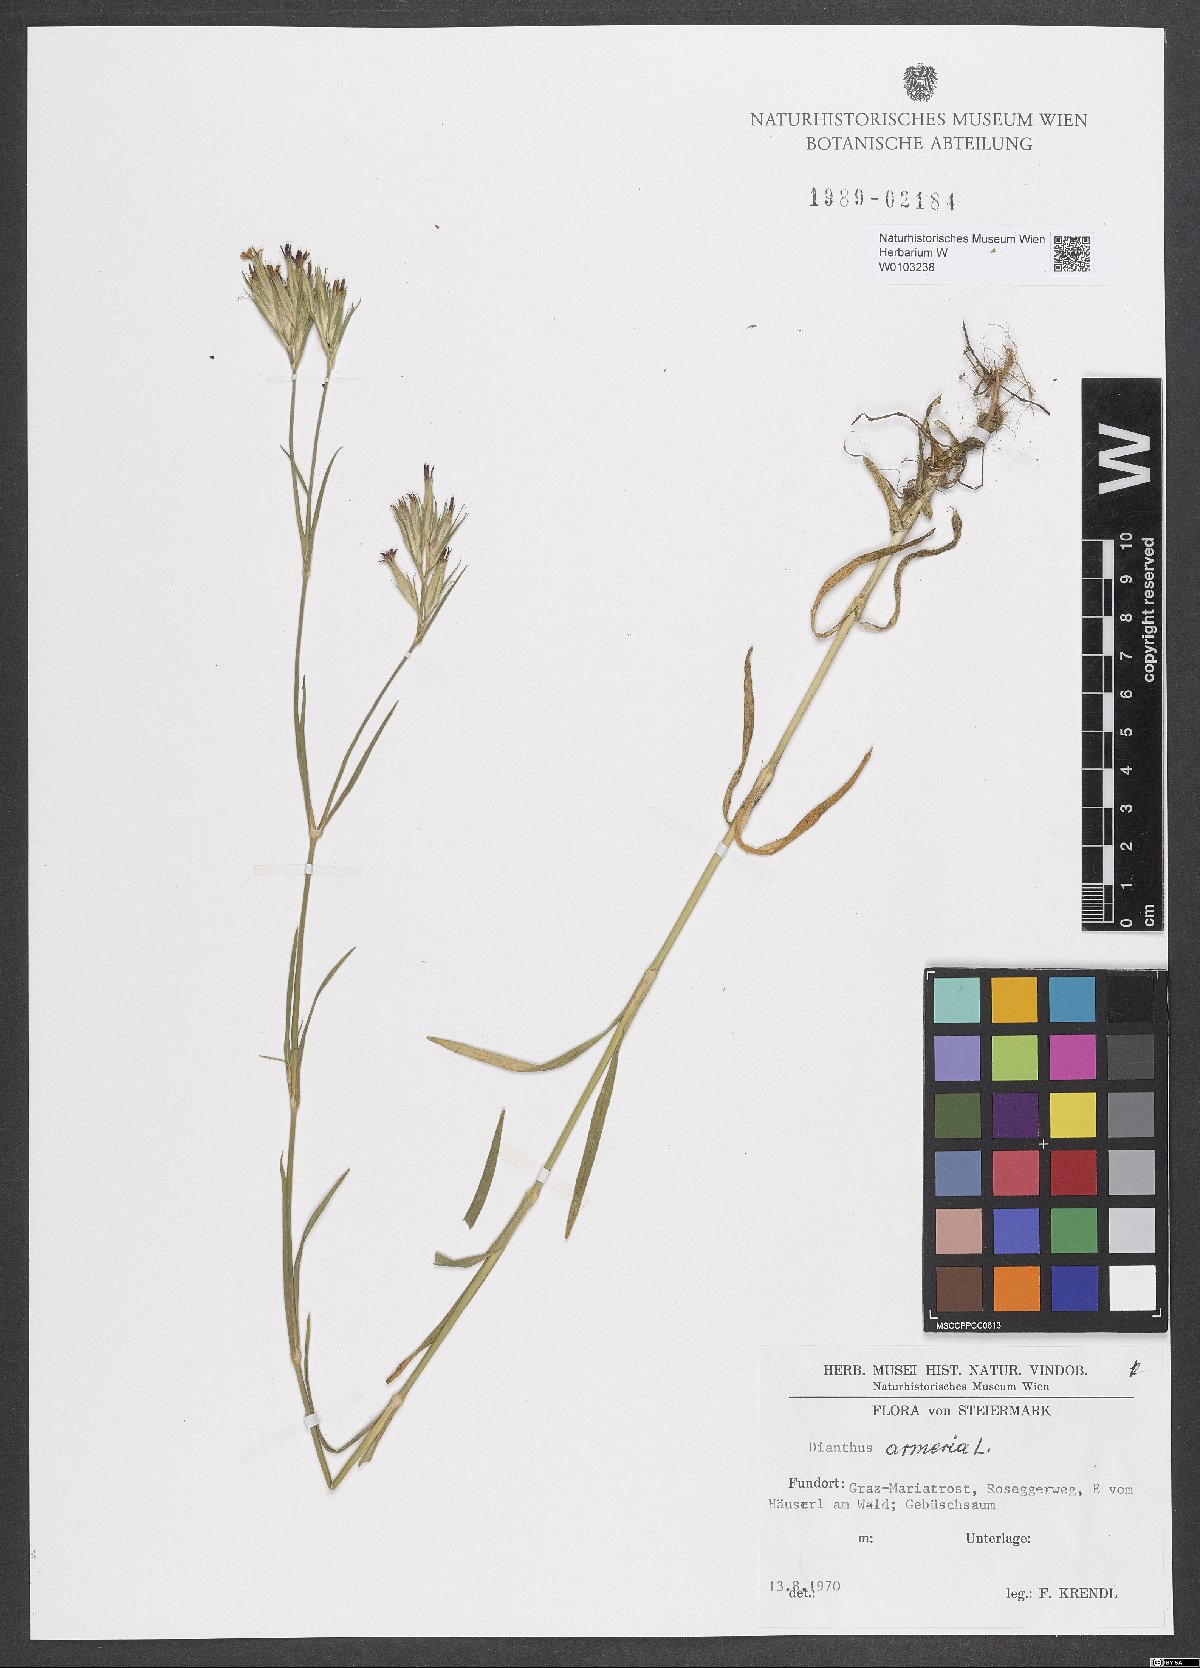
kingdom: Plantae
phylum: Tracheophyta
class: Magnoliopsida
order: Caryophyllales
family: Caryophyllaceae
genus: Dianthus
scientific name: Dianthus armeria
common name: Deptford pink
